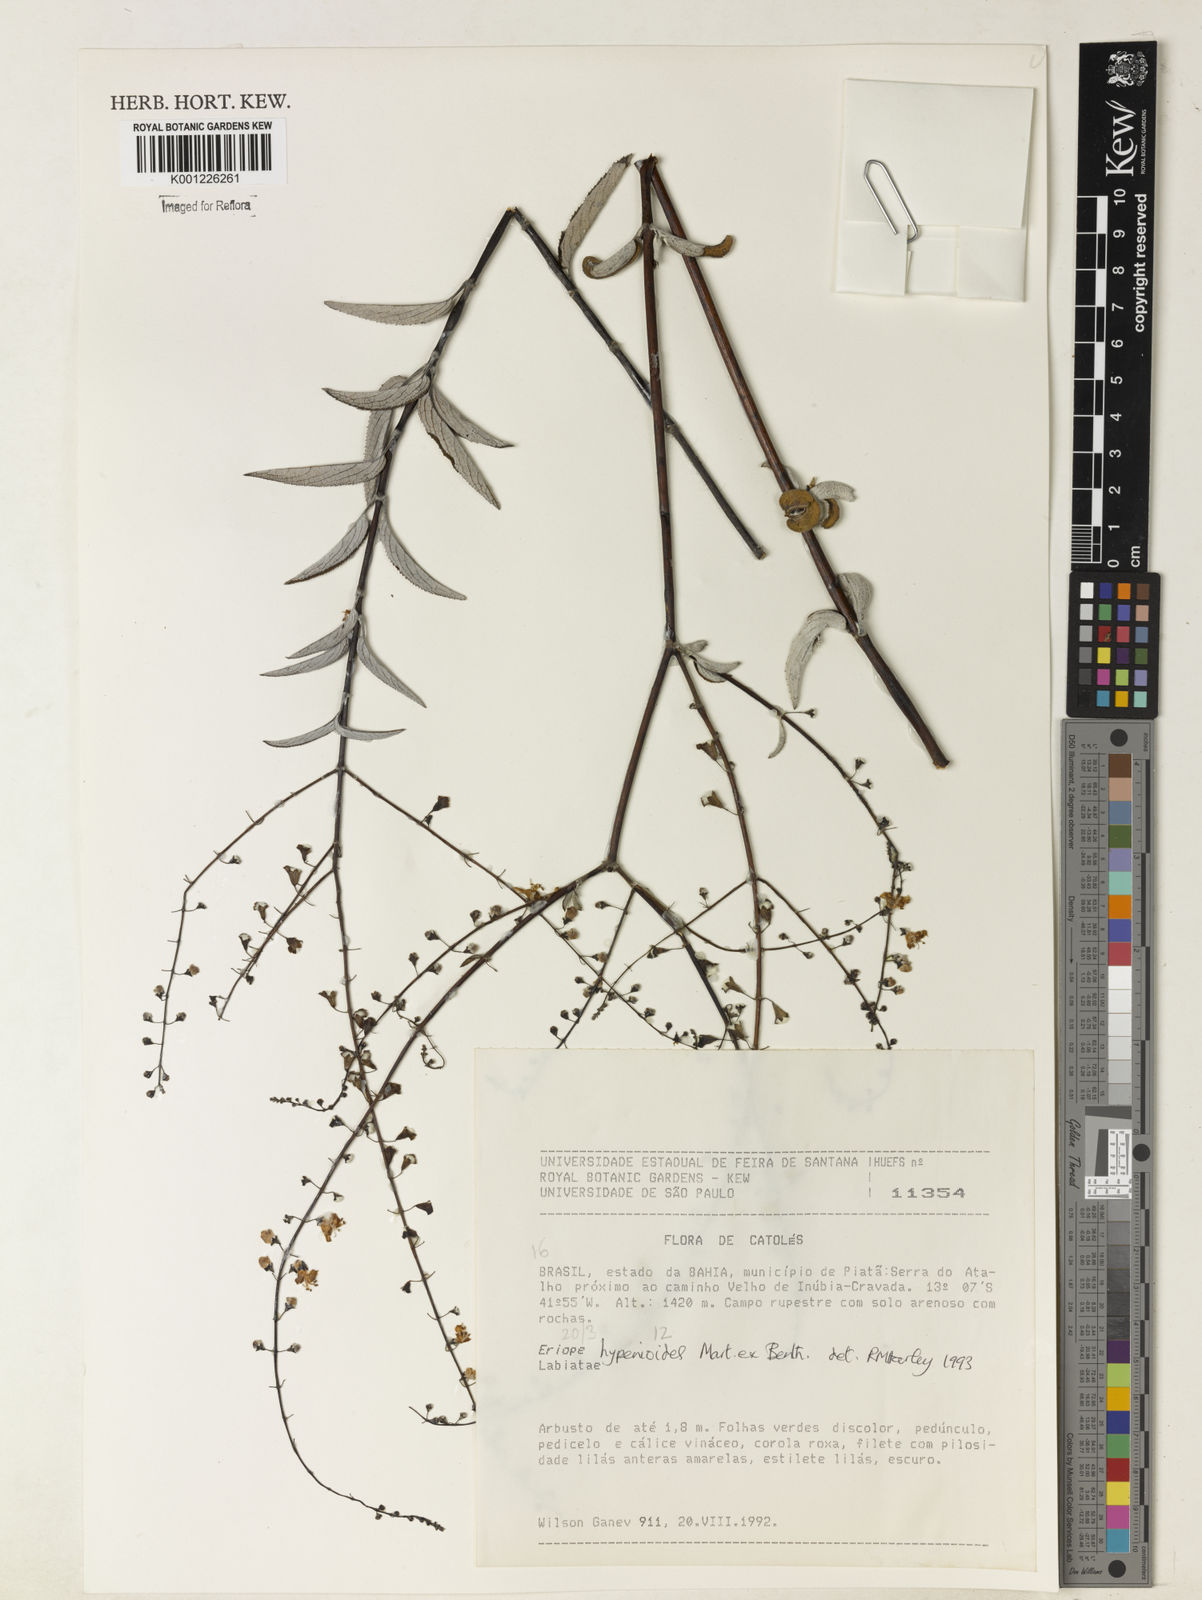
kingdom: Plantae
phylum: Tracheophyta
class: Magnoliopsida
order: Lamiales
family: Lamiaceae
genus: Eriope
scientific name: Eriope hypenioides
